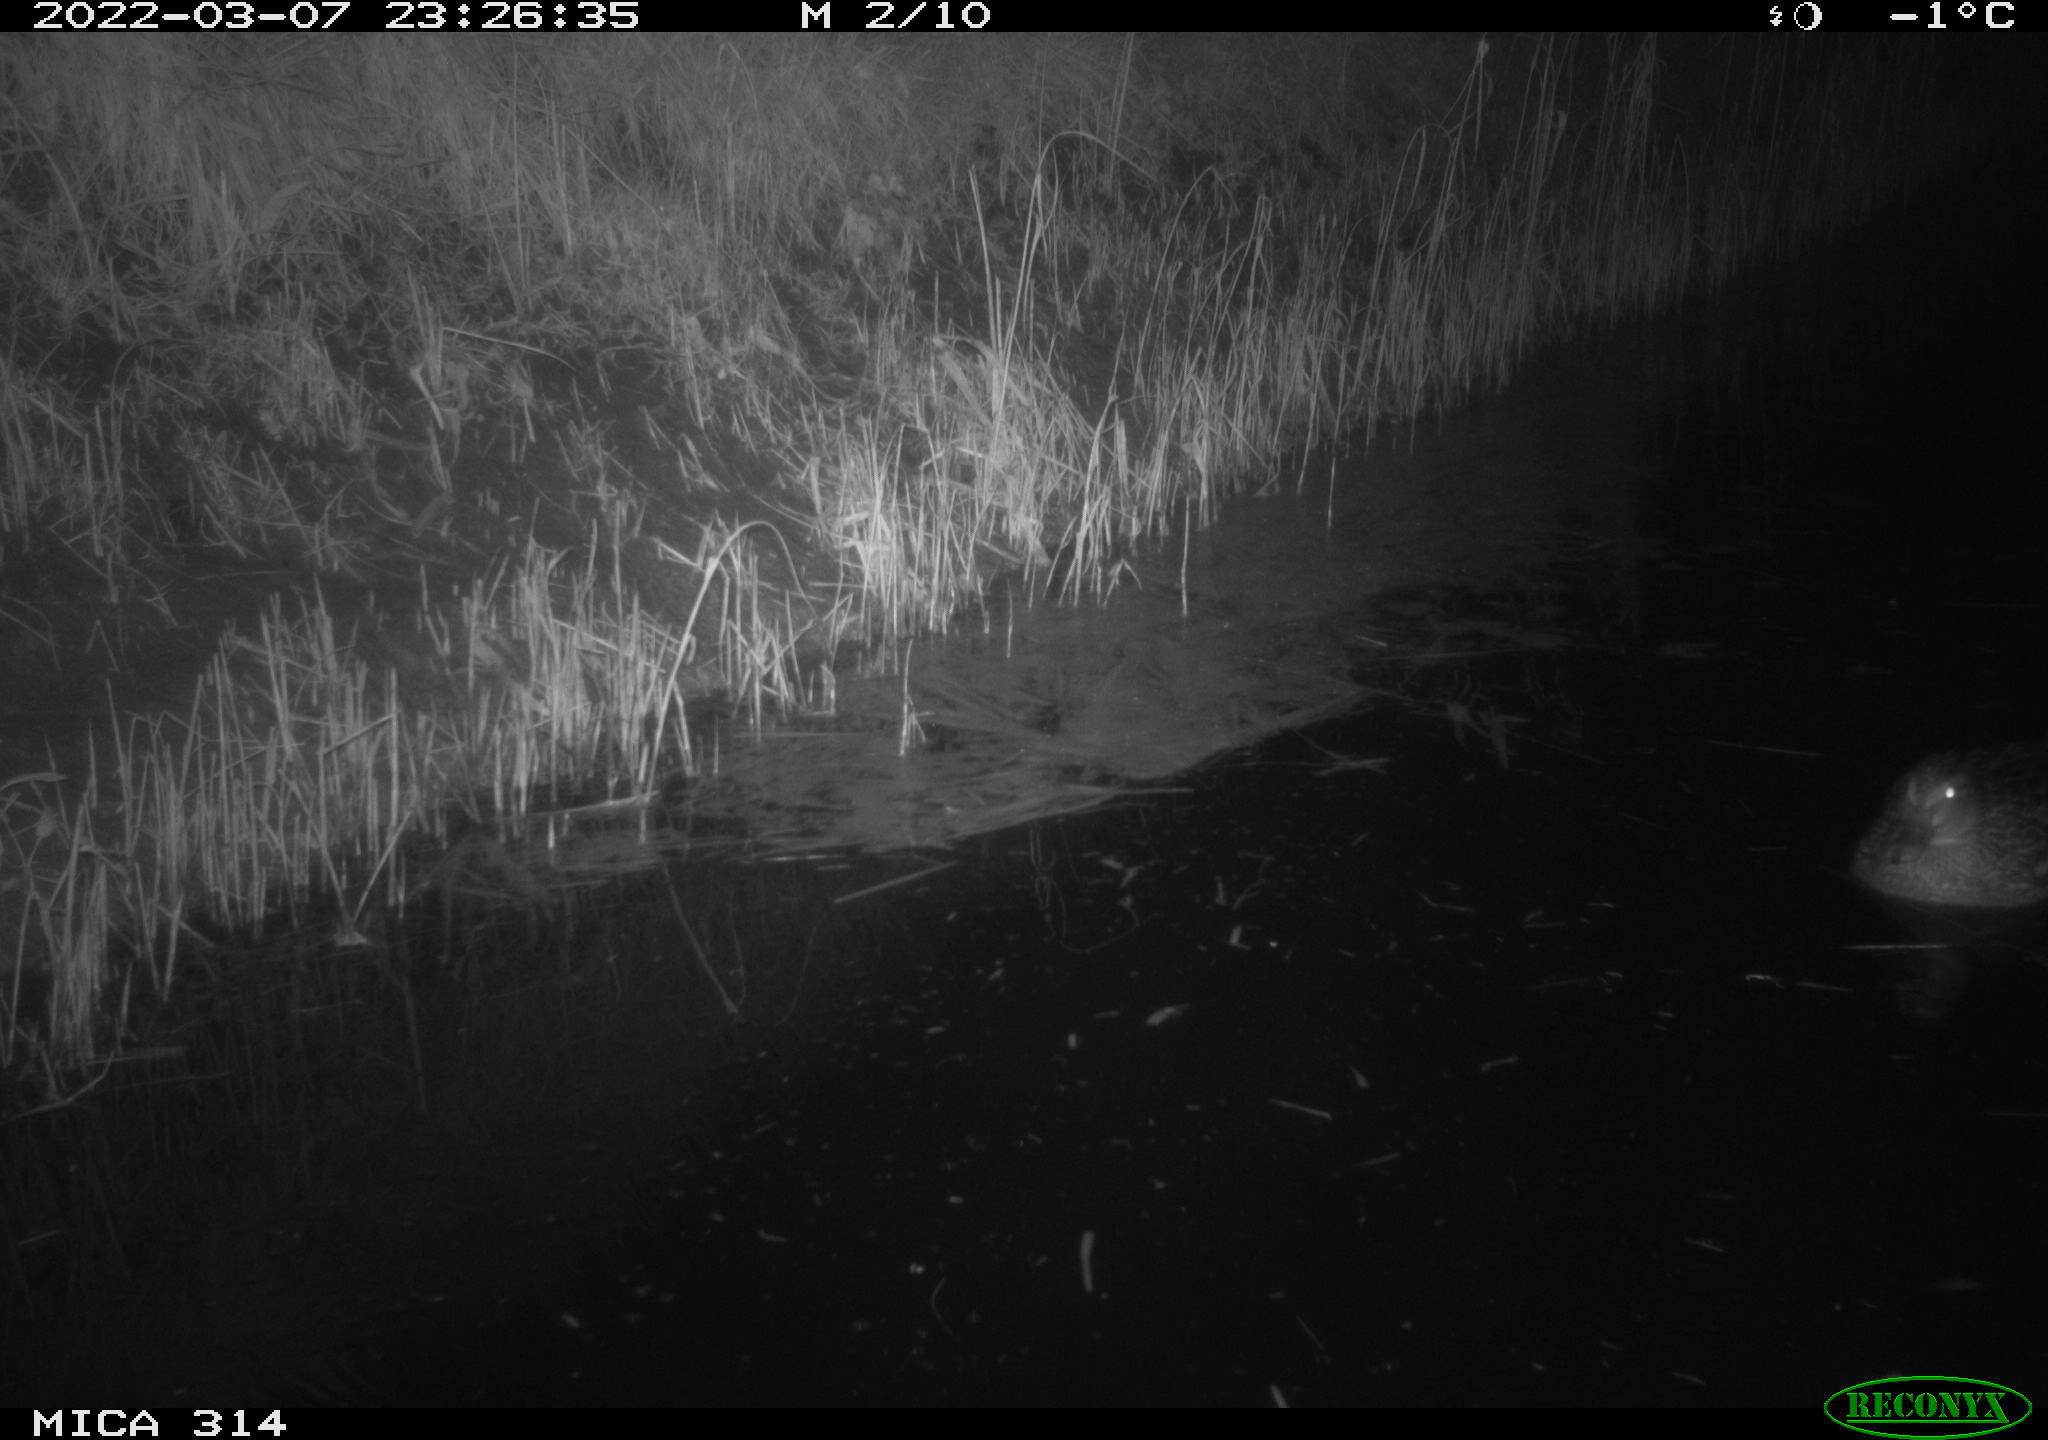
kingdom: Animalia
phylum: Chordata
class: Mammalia
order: Rodentia
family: Muridae
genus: Rattus
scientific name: Rattus norvegicus
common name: Brown rat
